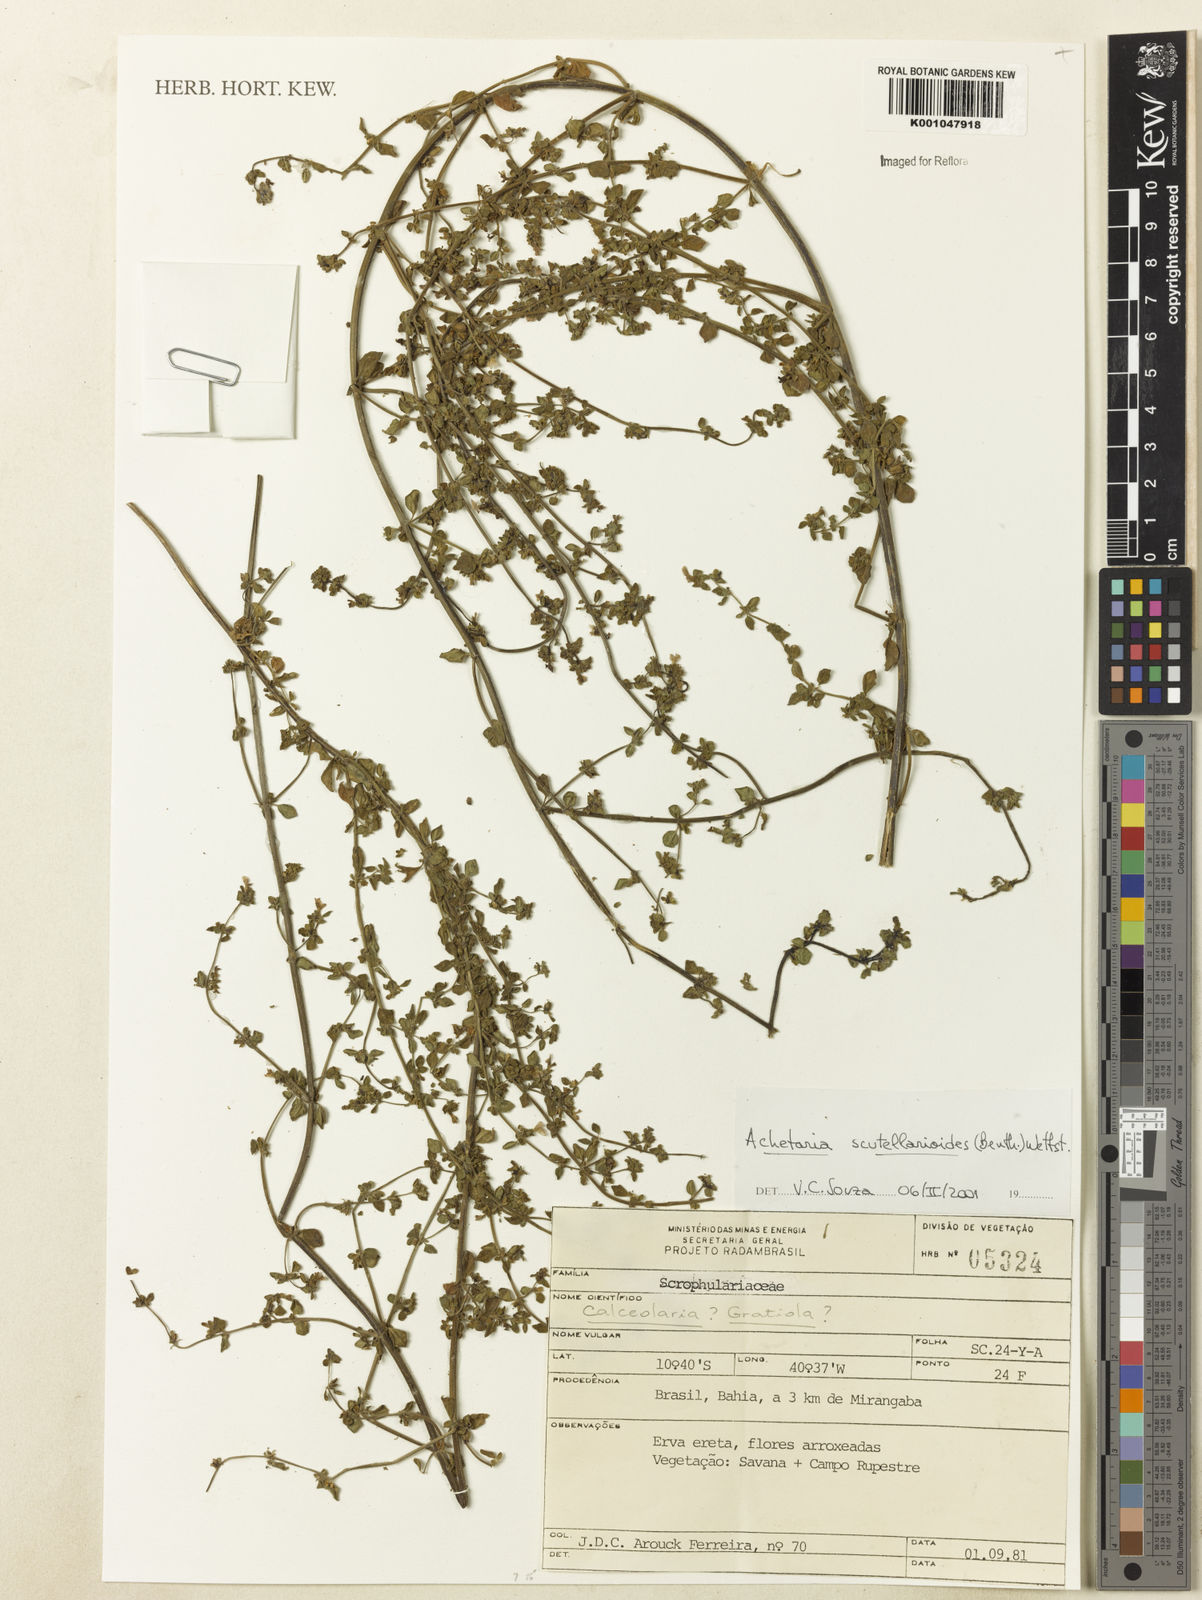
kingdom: Plantae
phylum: Tracheophyta
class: Magnoliopsida
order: Lamiales
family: Plantaginaceae
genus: Matourea
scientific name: Matourea scutellarioides
